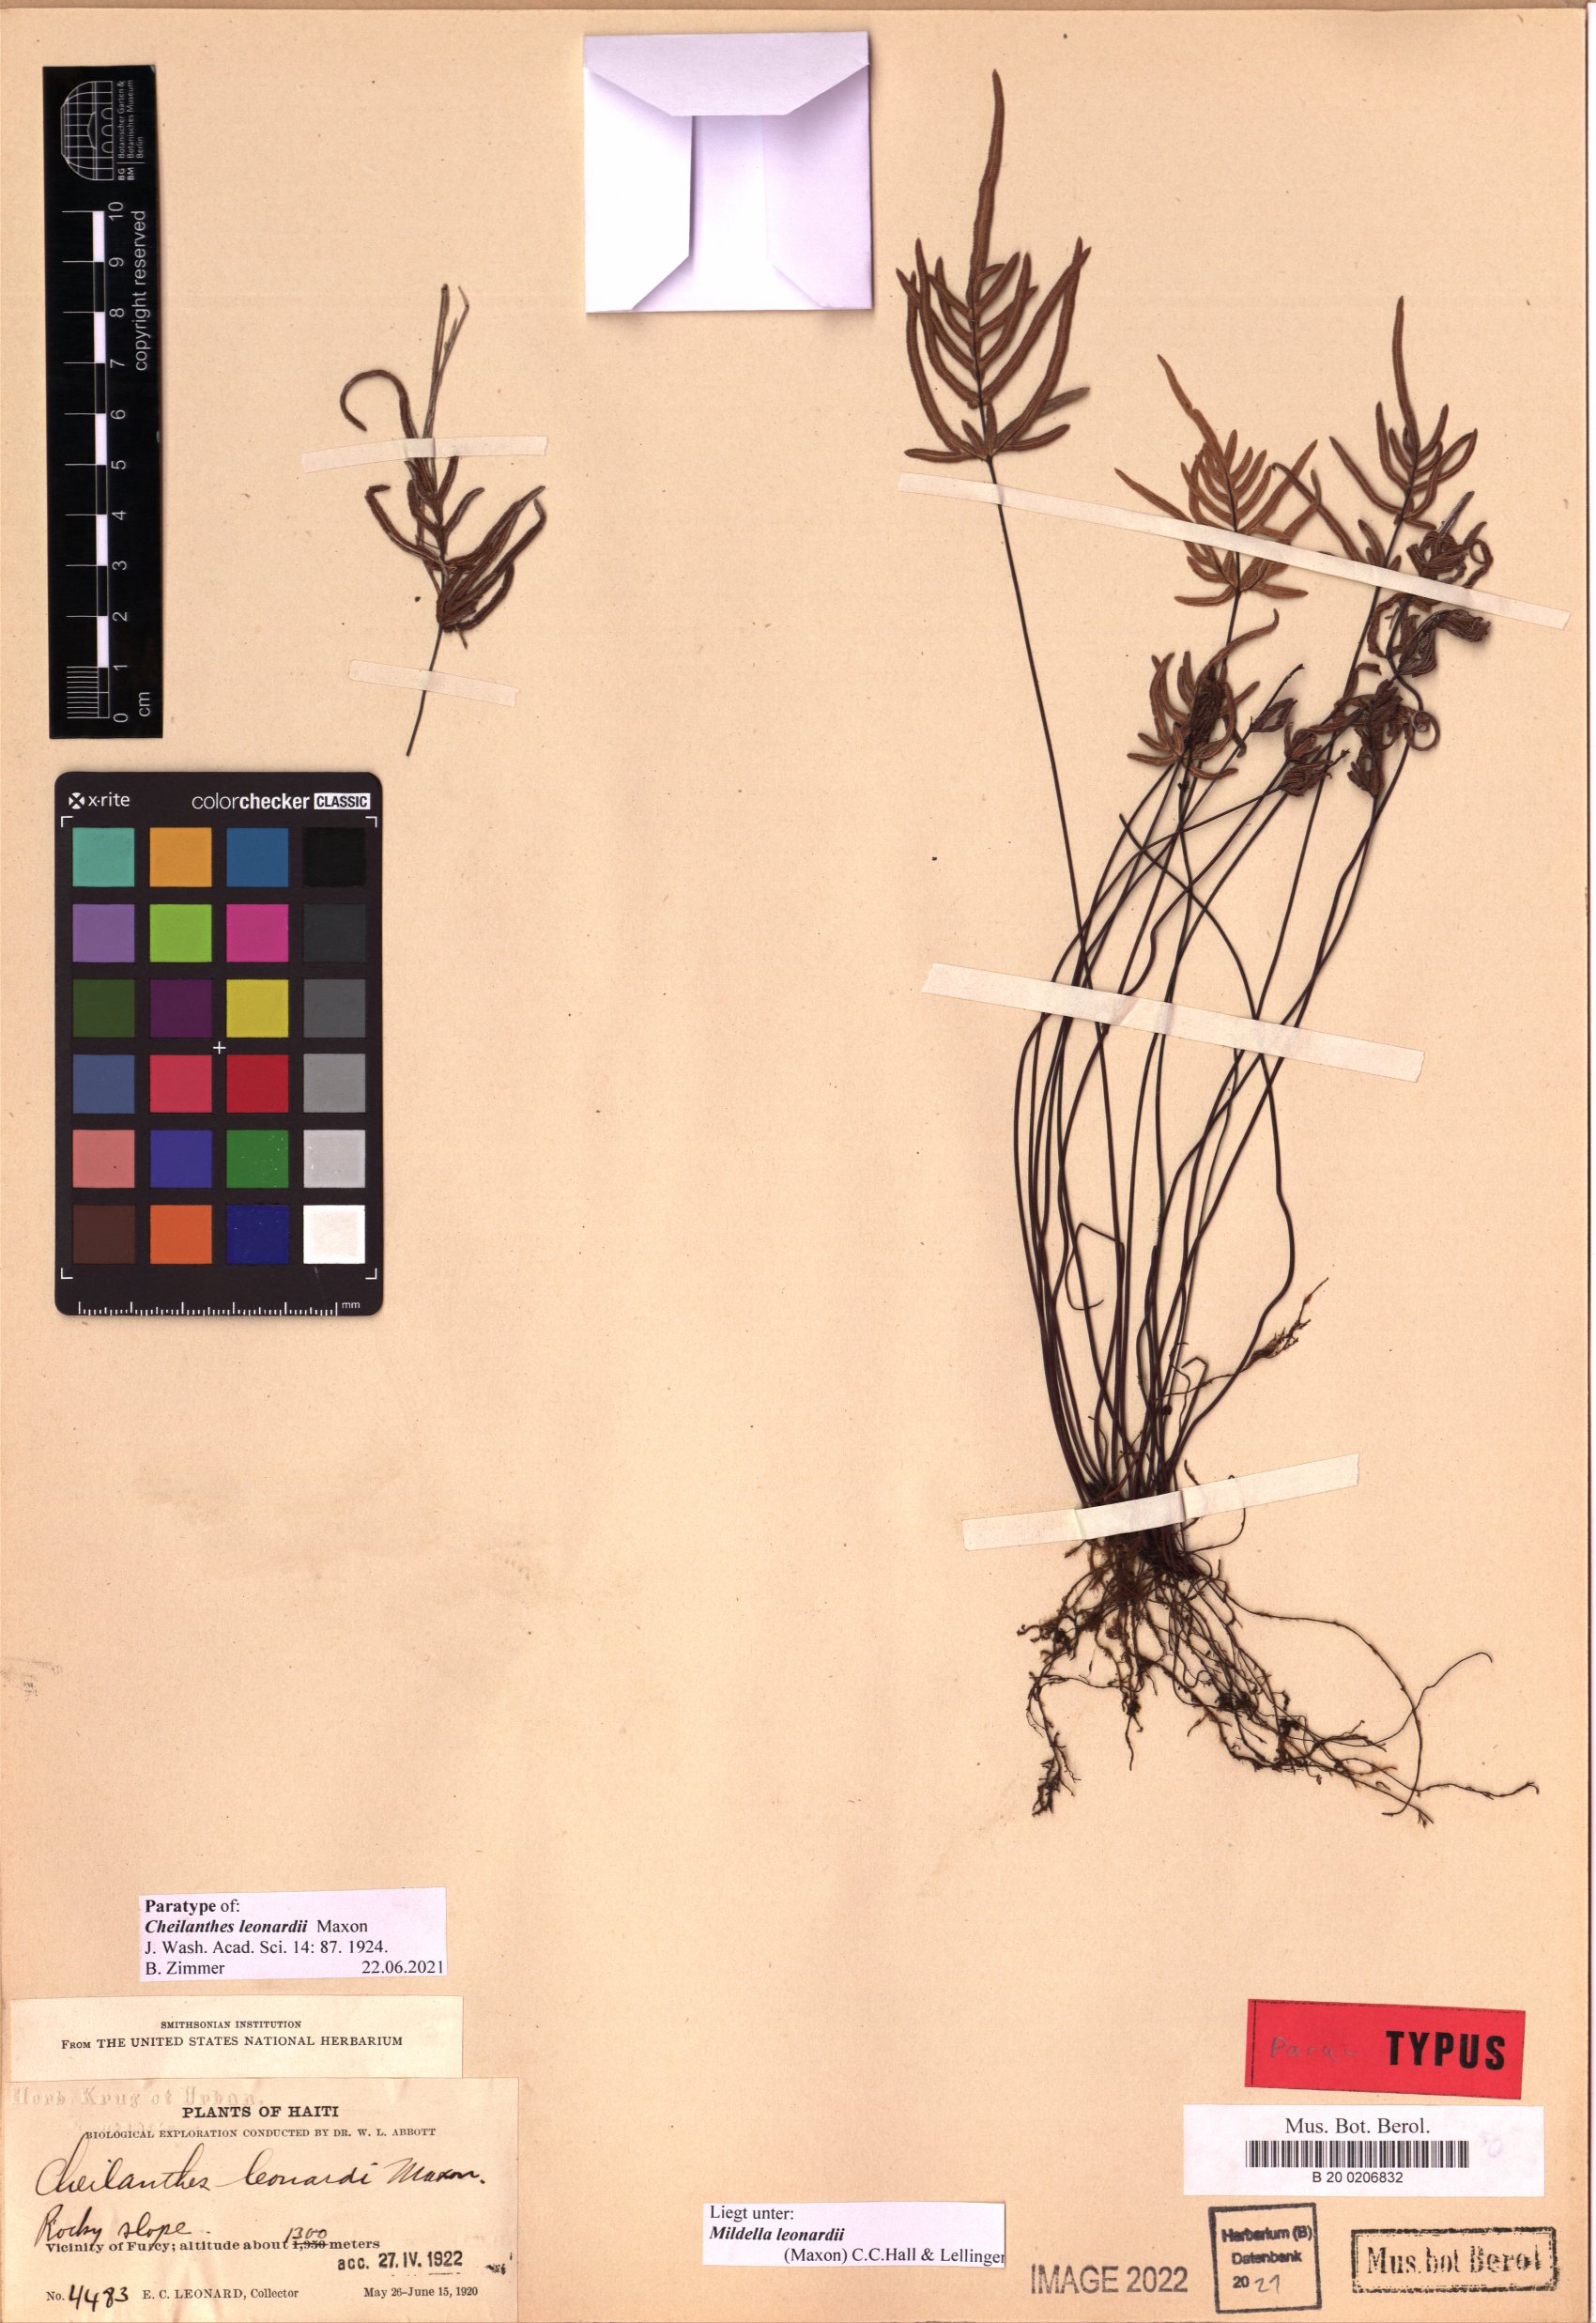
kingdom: Plantae
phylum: Tracheophyta
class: Polypodiopsida
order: Polypodiales
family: Pteridaceae
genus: Mildella
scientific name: Mildella leonardii
